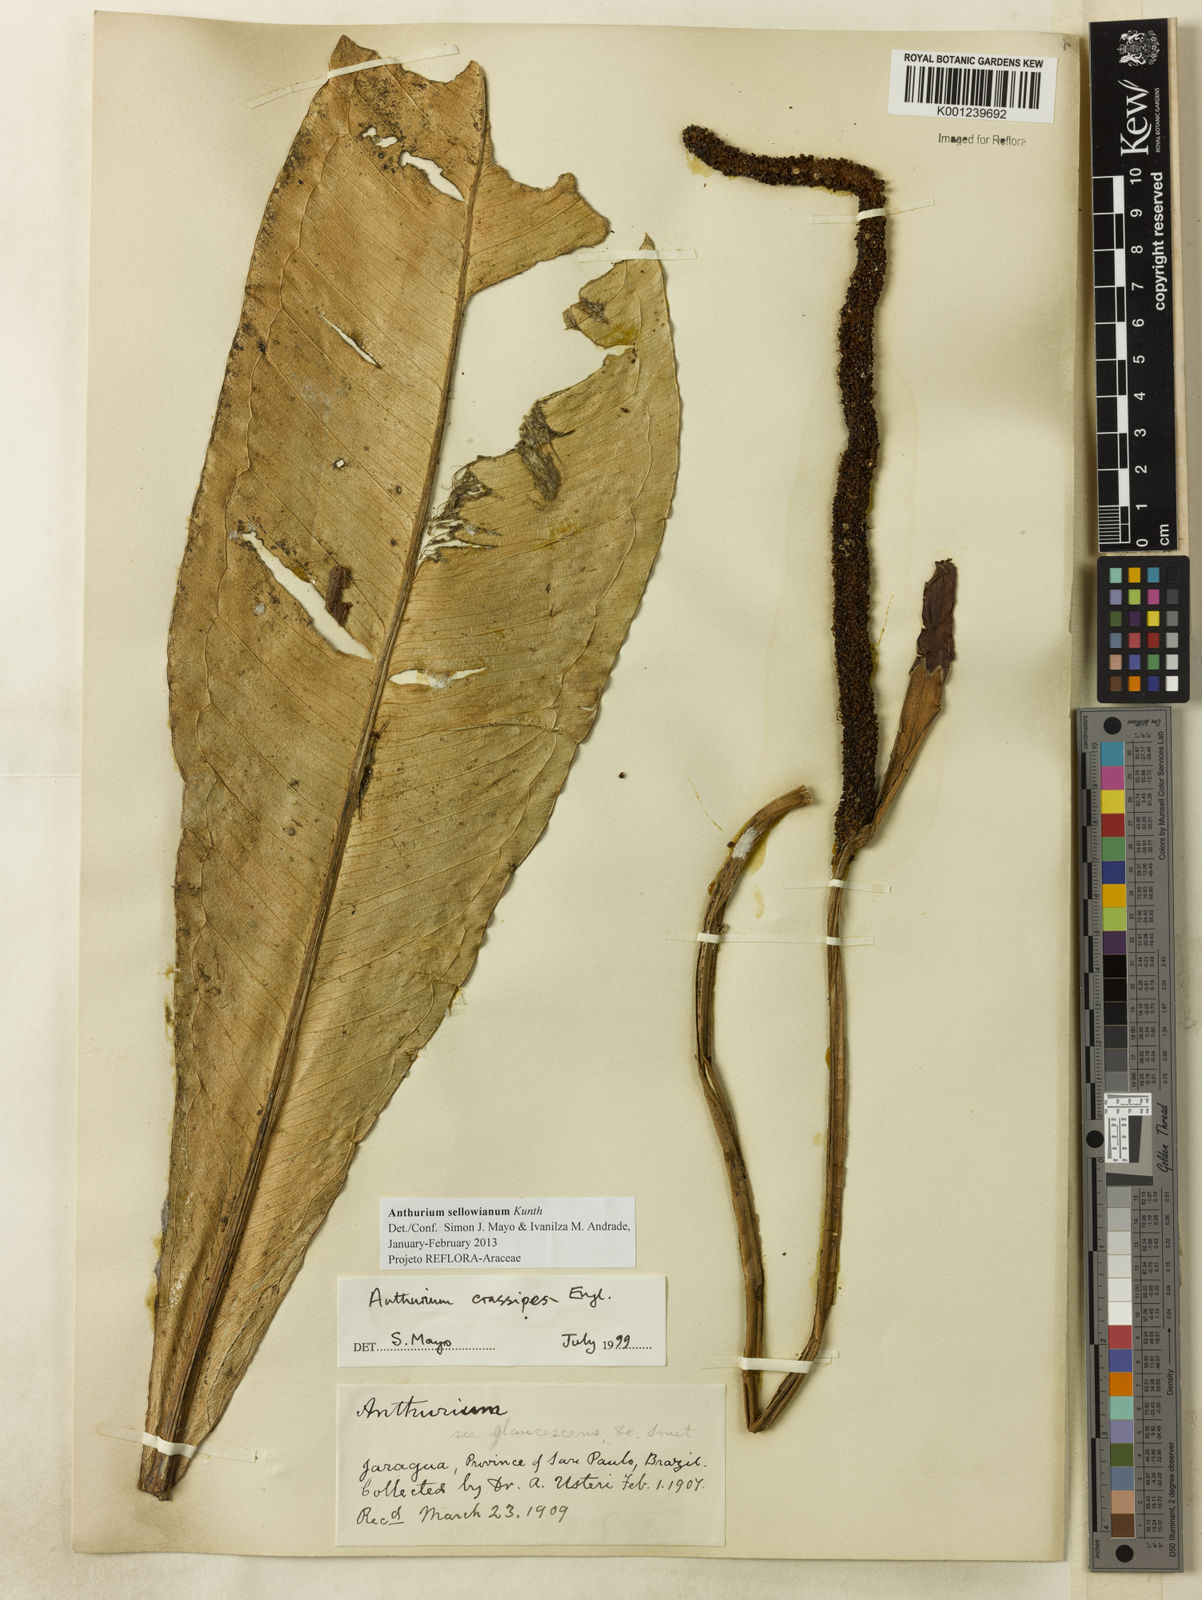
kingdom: Plantae
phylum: Tracheophyta
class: Liliopsida
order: Alismatales
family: Araceae
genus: Anthurium
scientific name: Anthurium sellowianum
